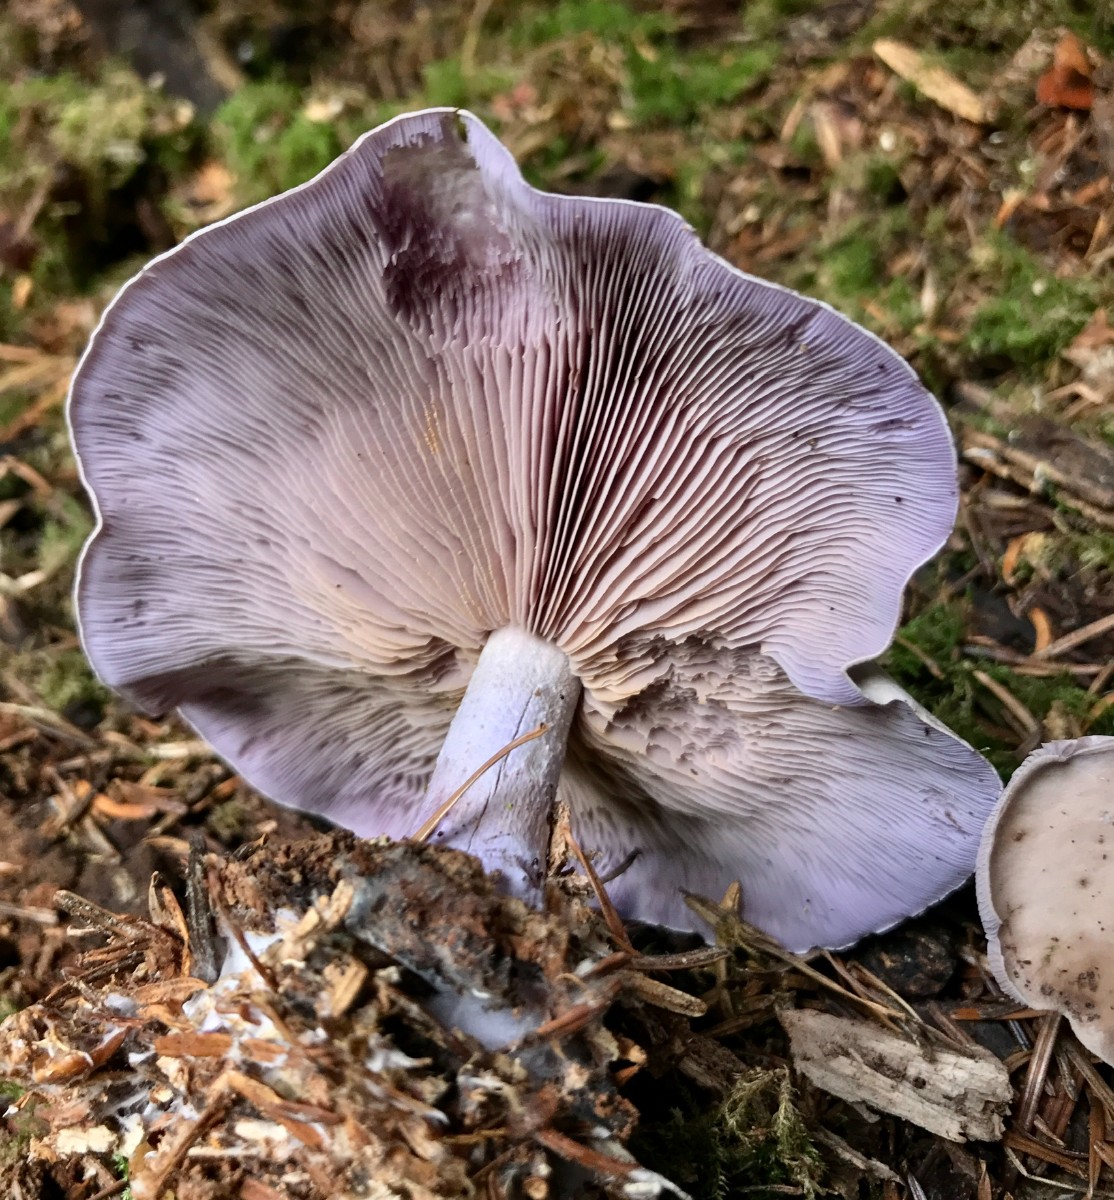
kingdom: Fungi
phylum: Basidiomycota
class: Agaricomycetes
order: Agaricales
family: Tricholomataceae
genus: Lepista
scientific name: Lepista nuda
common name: violet hekseringshat
